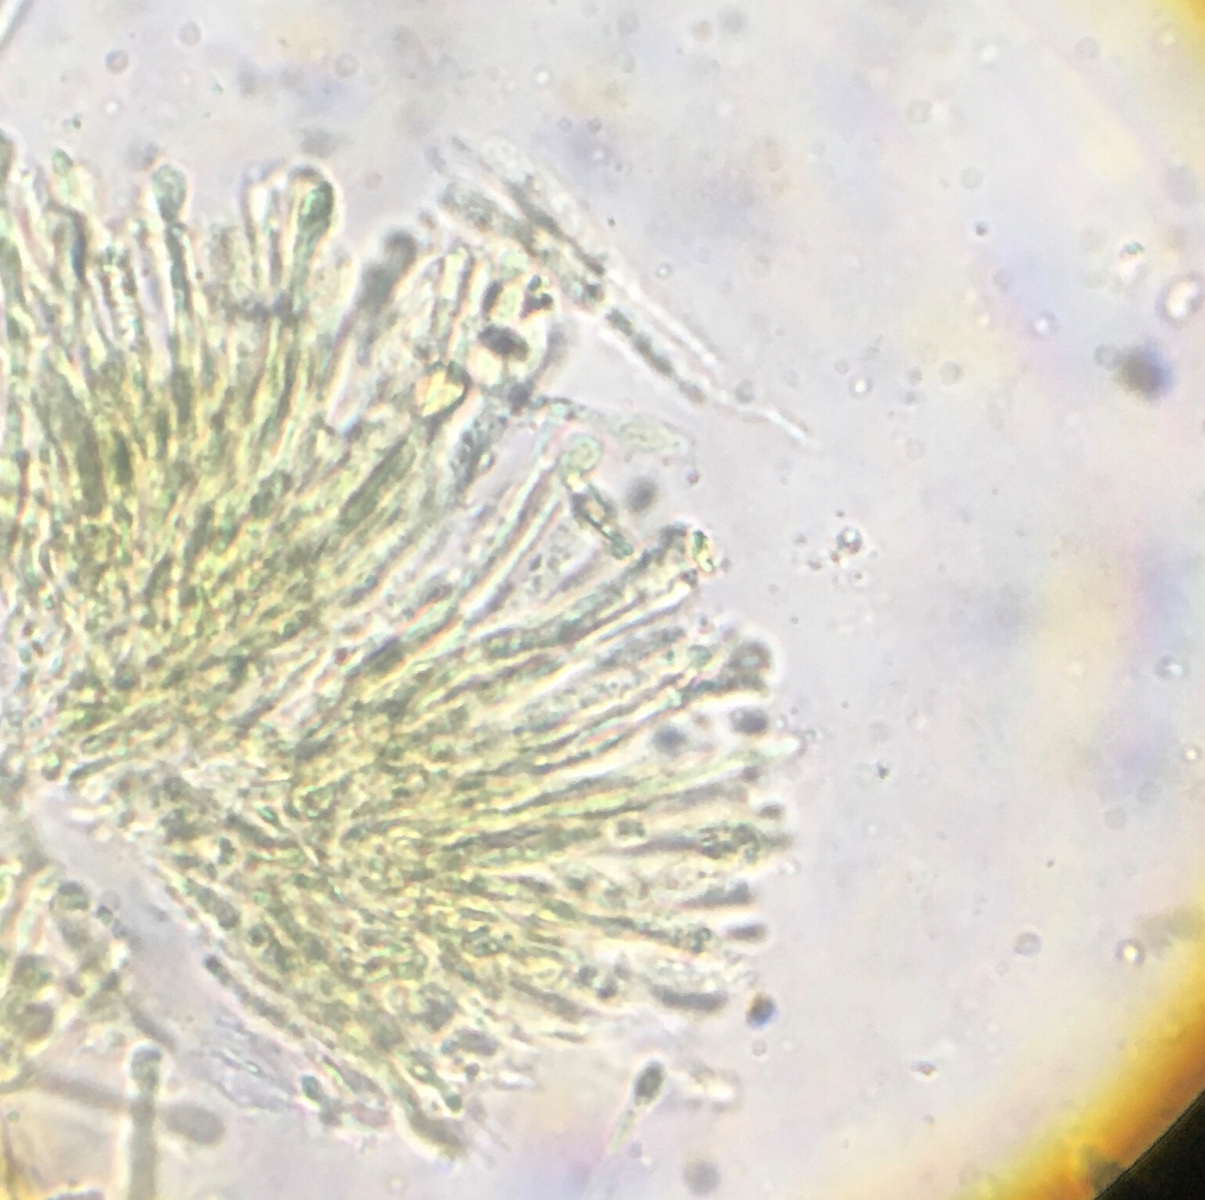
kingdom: Fungi
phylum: Ascomycota
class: Orbiliomycetes
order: Orbiliales
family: Orbiliaceae
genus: Orbilia
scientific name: Orbilia xanthostigma
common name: krumsporet voksskive
